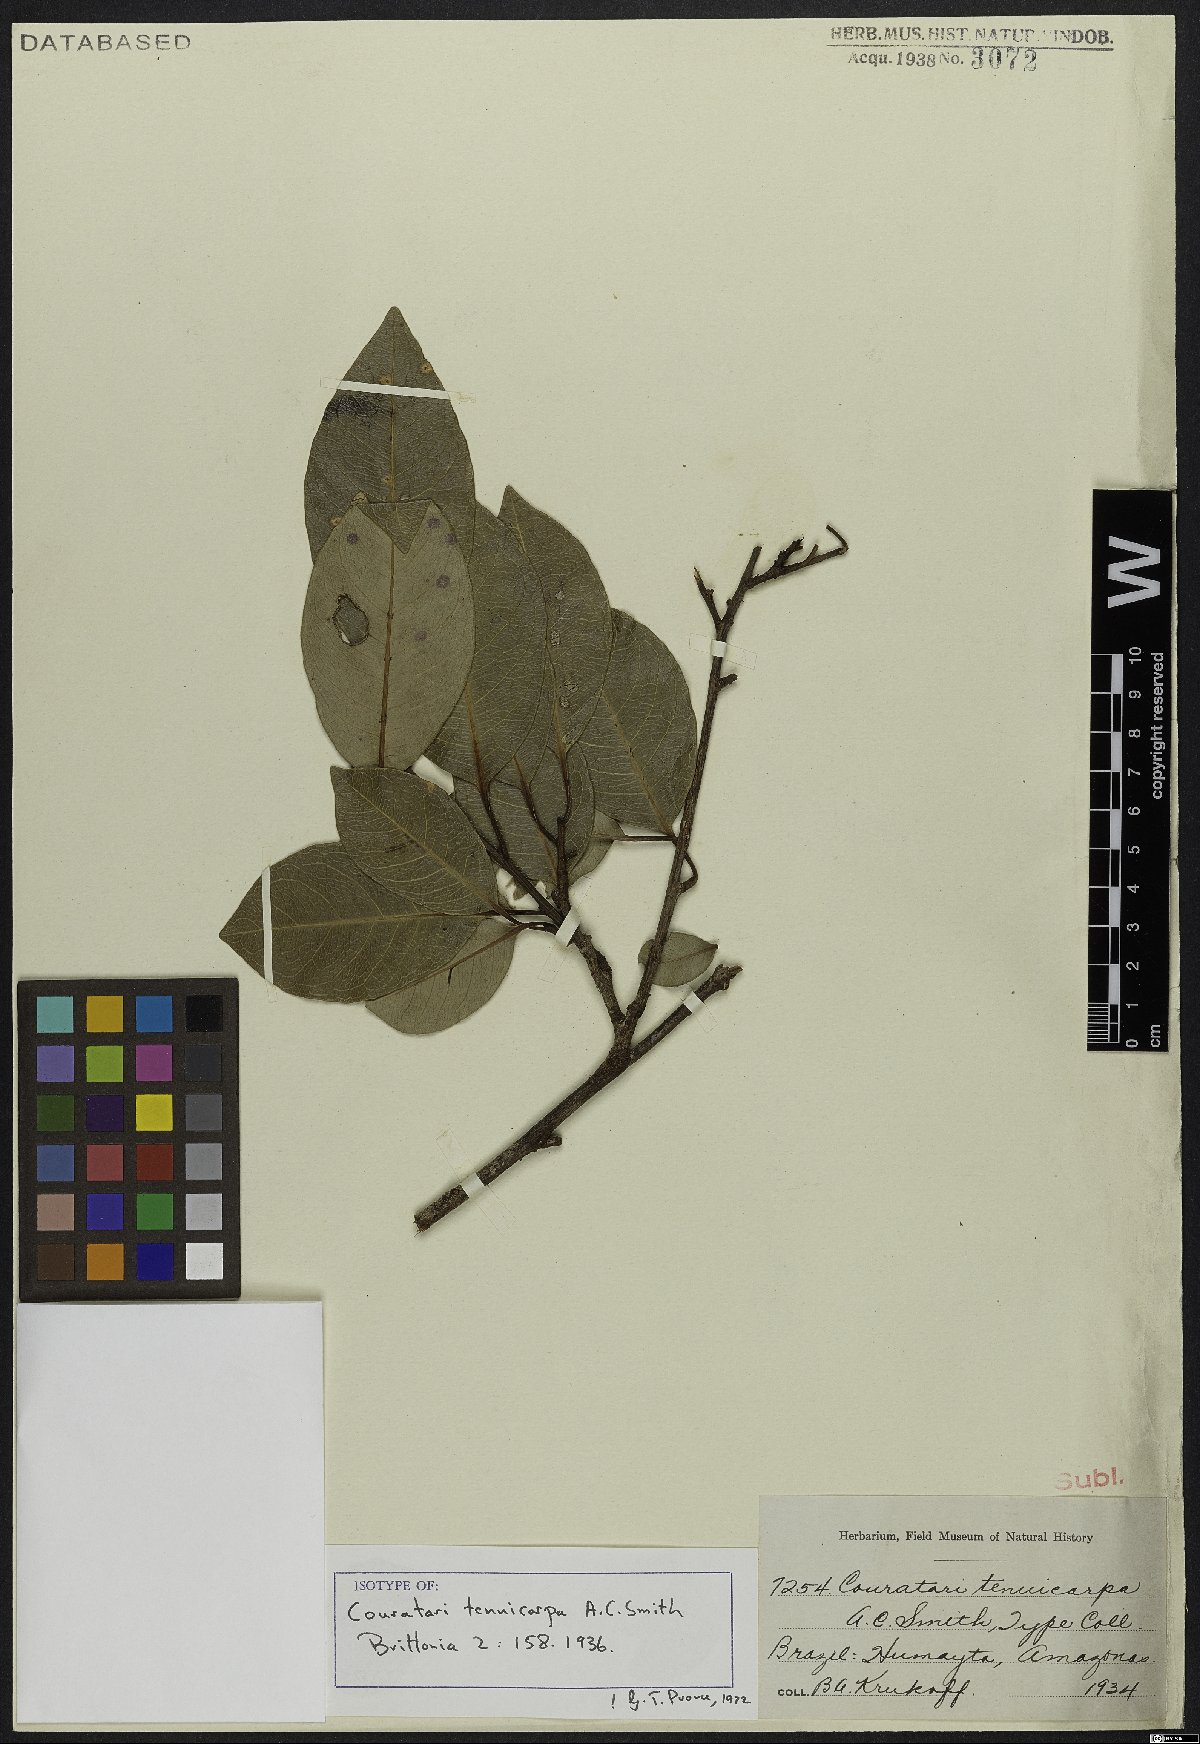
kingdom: Plantae
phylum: Tracheophyta
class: Magnoliopsida
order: Ericales
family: Lecythidaceae
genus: Couratari
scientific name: Couratari tenuicarpa
